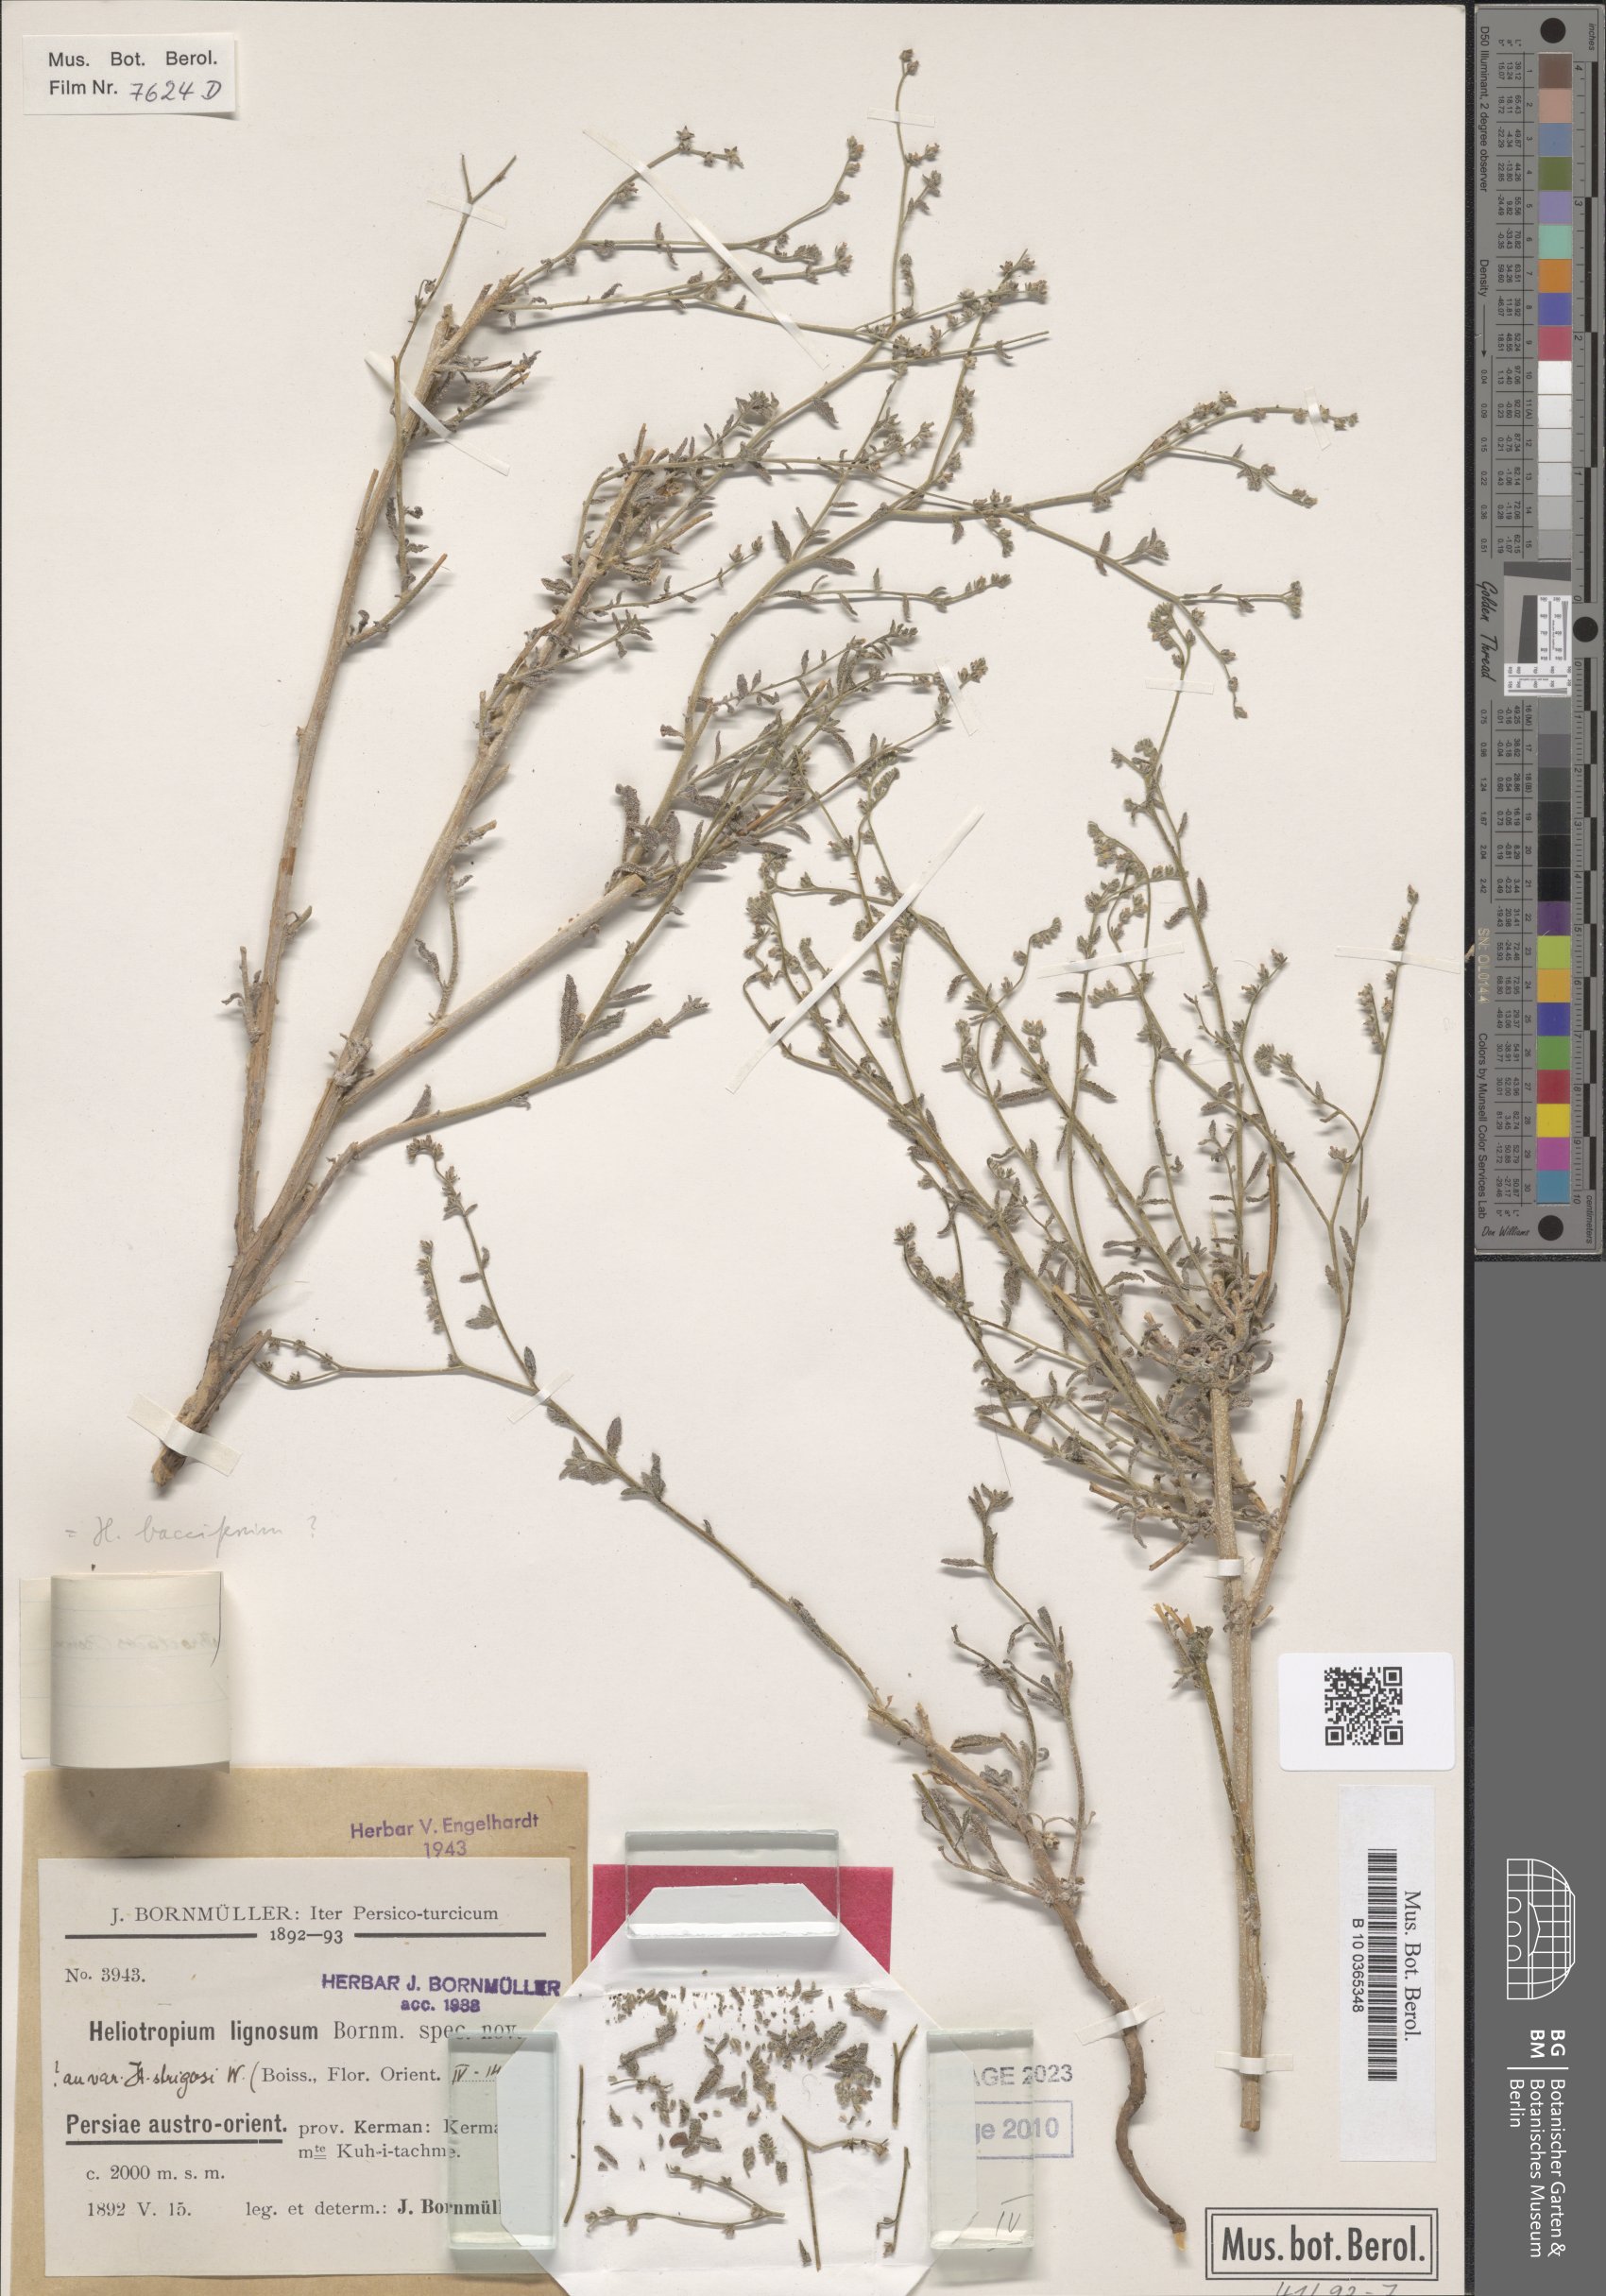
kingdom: Plantae
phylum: Tracheophyta
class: Magnoliopsida
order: Boraginales
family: Heliotropiaceae
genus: Heliotropium
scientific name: Heliotropium bacciferum
